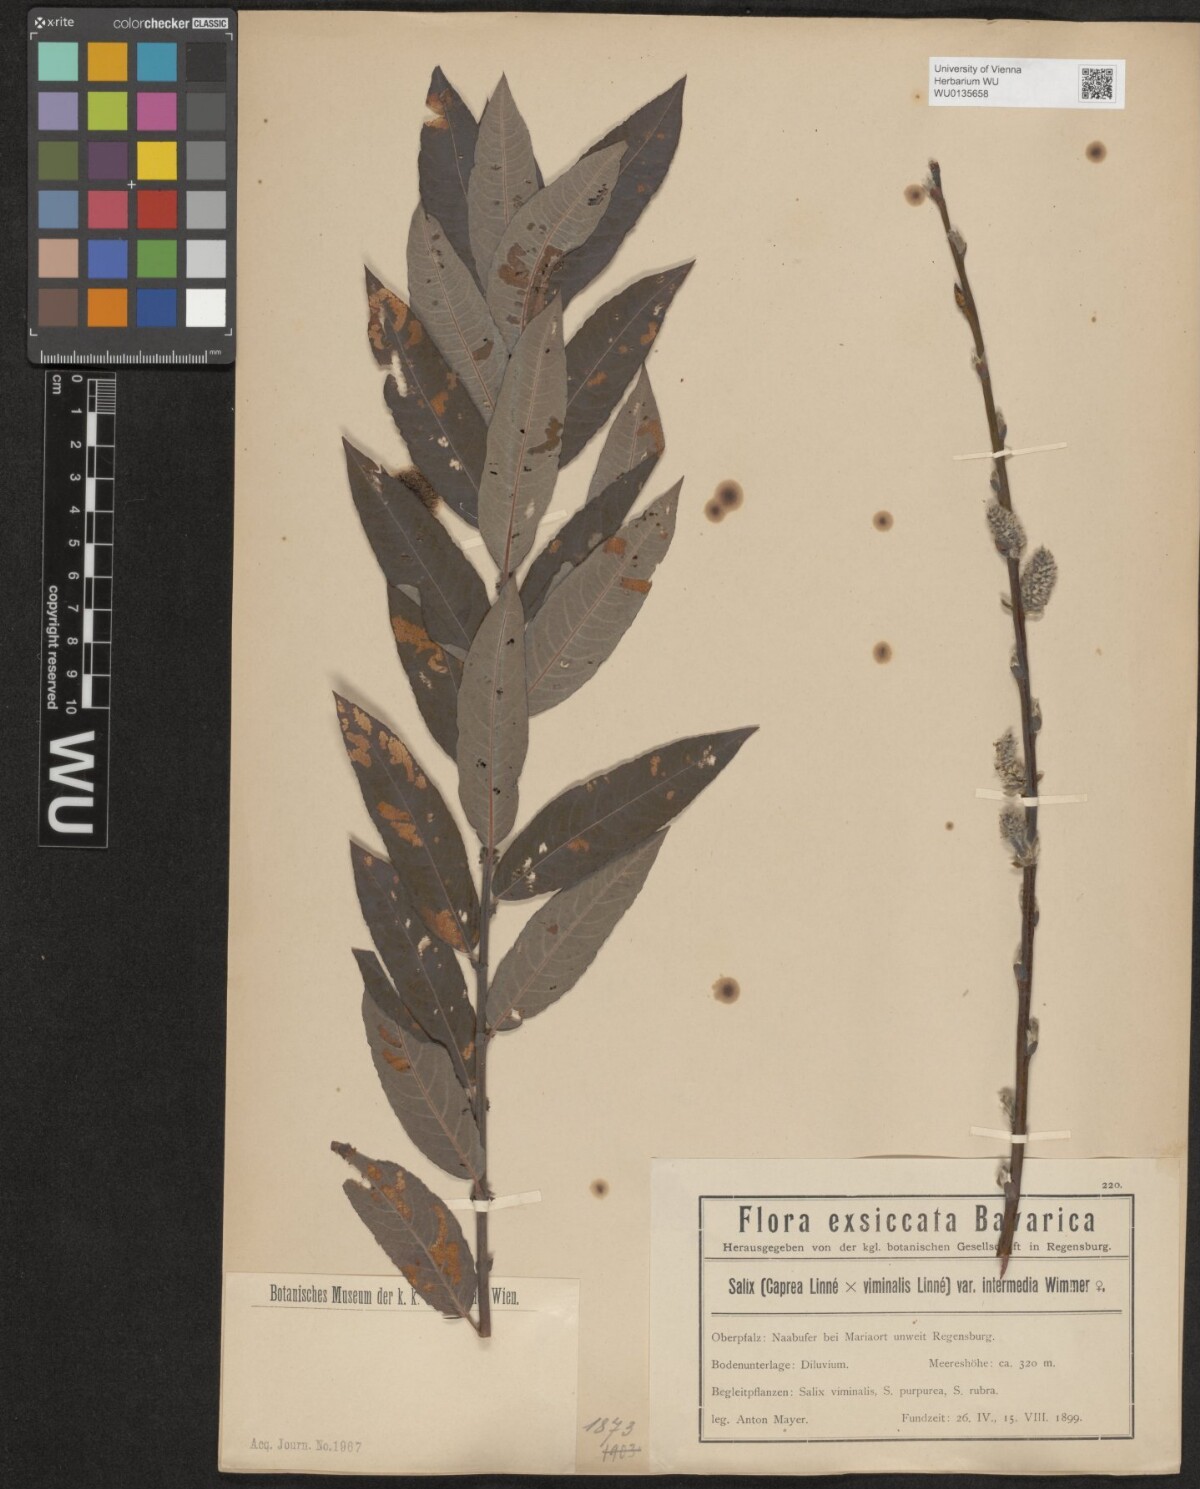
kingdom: Plantae
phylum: Tracheophyta
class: Magnoliopsida
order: Malpighiales
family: Salicaceae
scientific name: Salicaceae
